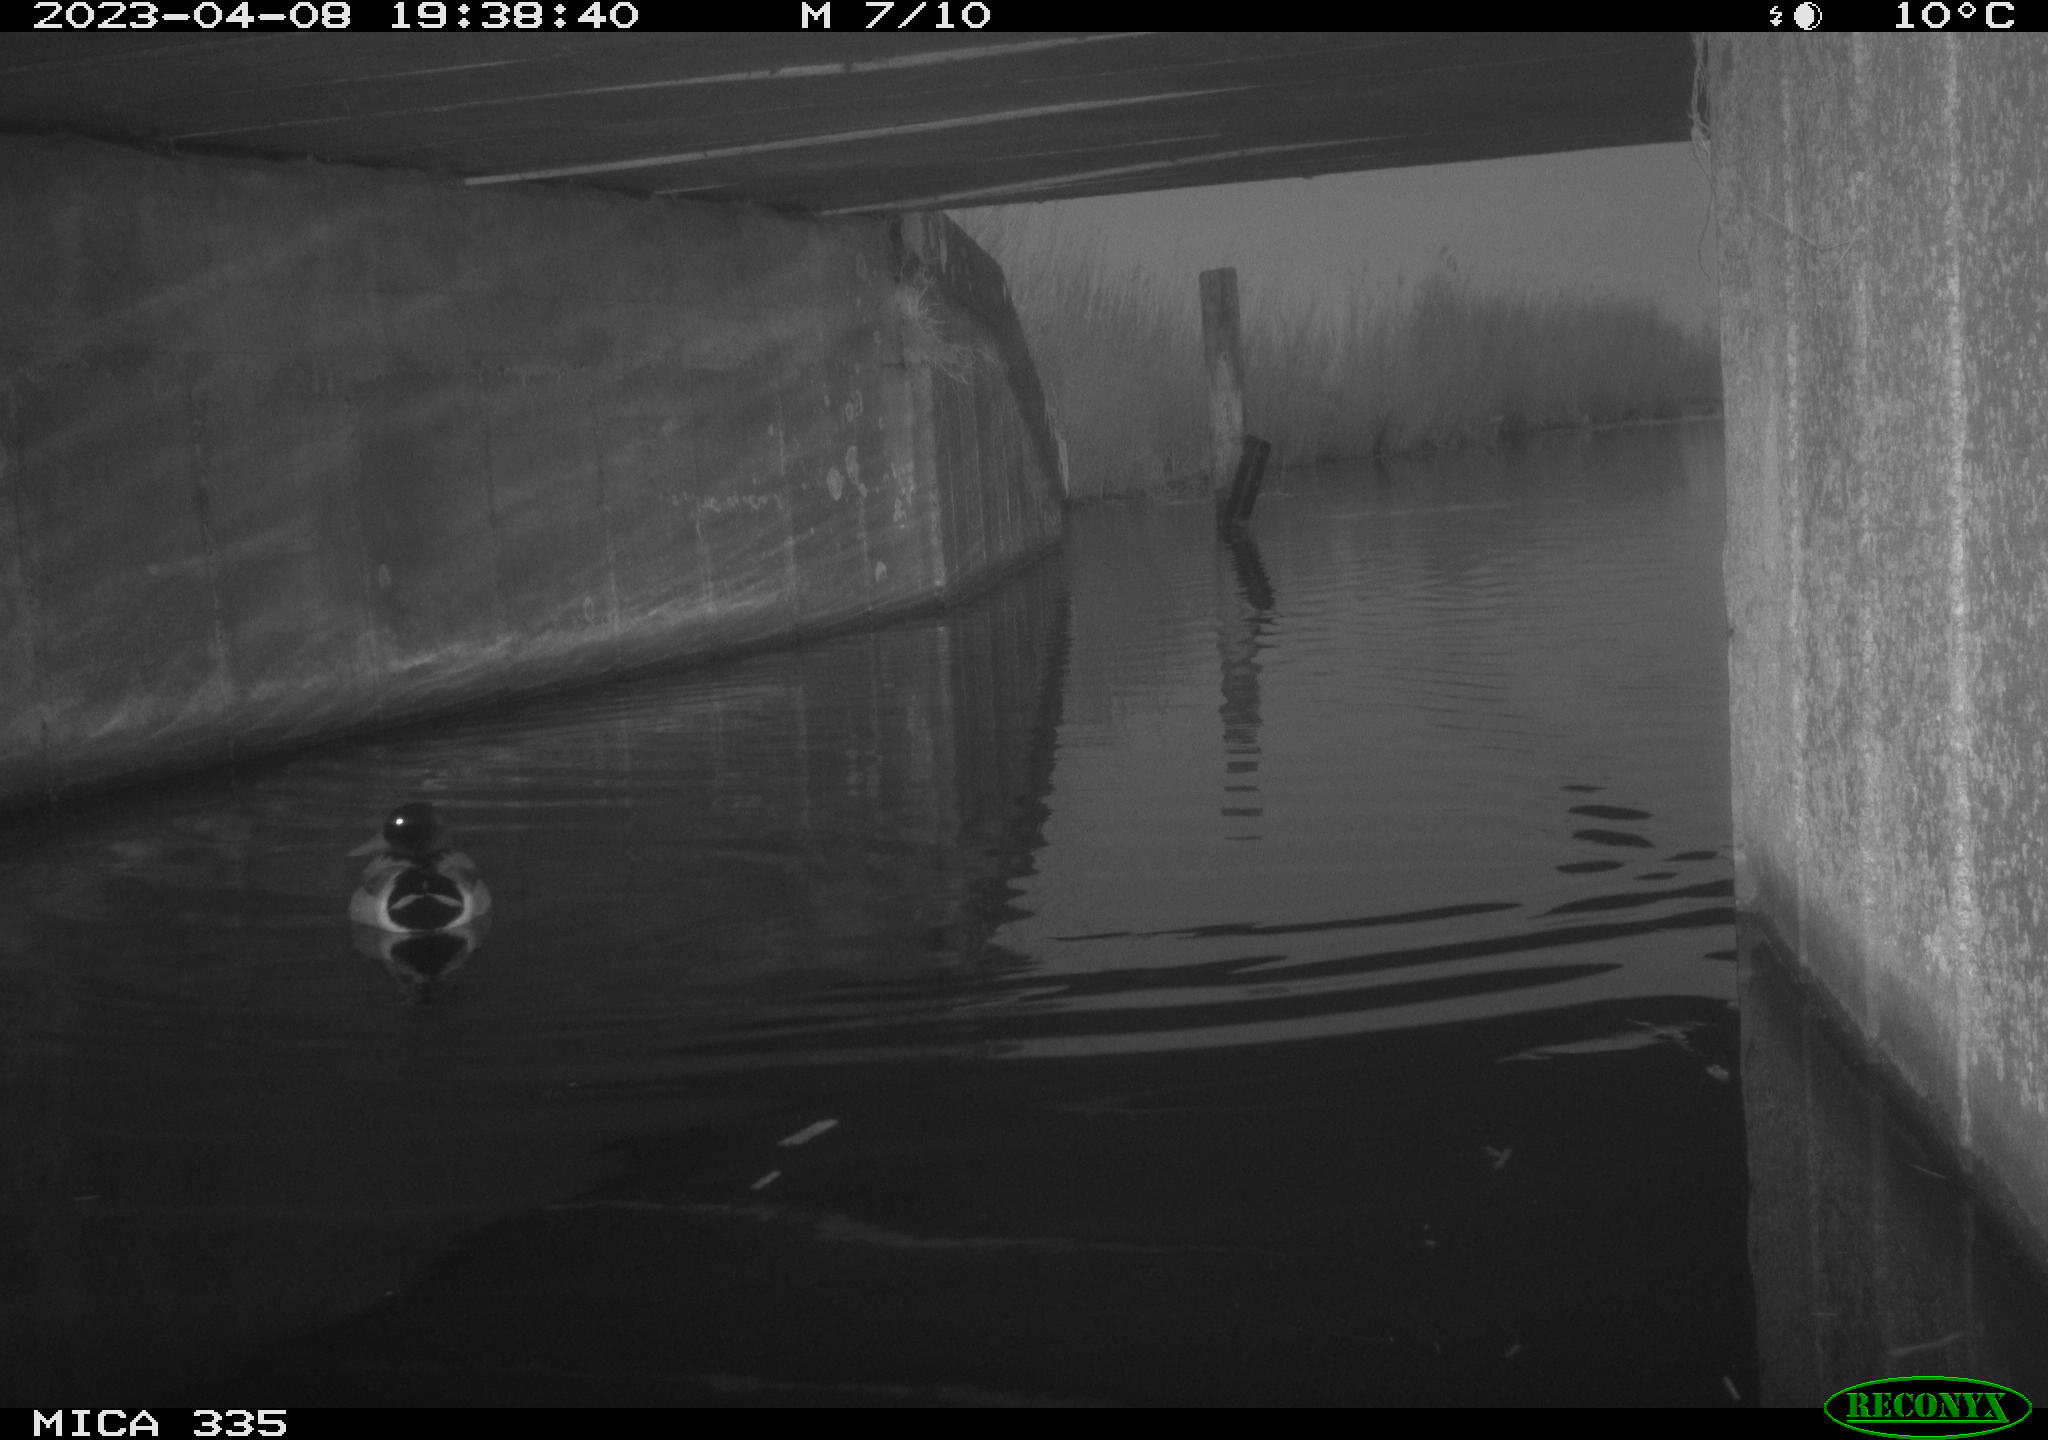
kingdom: Animalia
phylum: Chordata
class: Aves
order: Anseriformes
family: Anatidae
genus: Anas
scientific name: Anas
